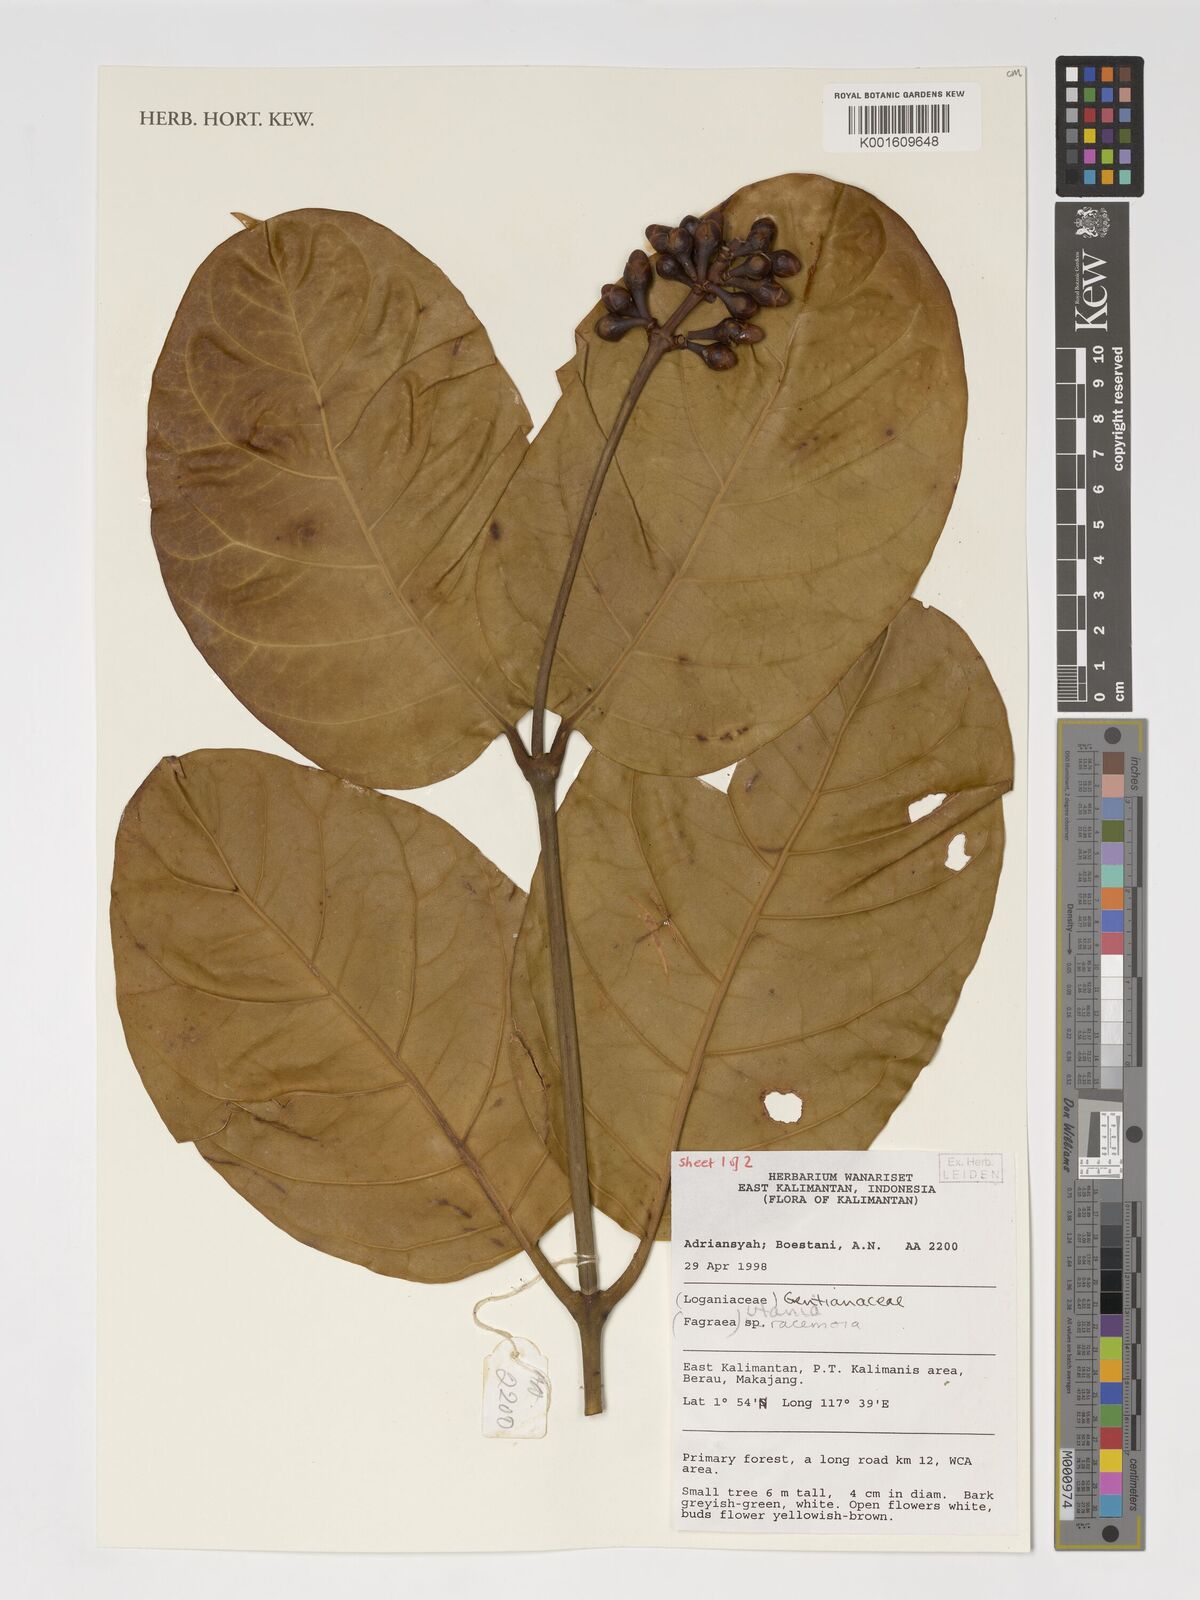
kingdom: Plantae
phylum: Tracheophyta
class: Magnoliopsida
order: Gentianales
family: Gentianaceae
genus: Utania
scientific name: Utania racemosa
